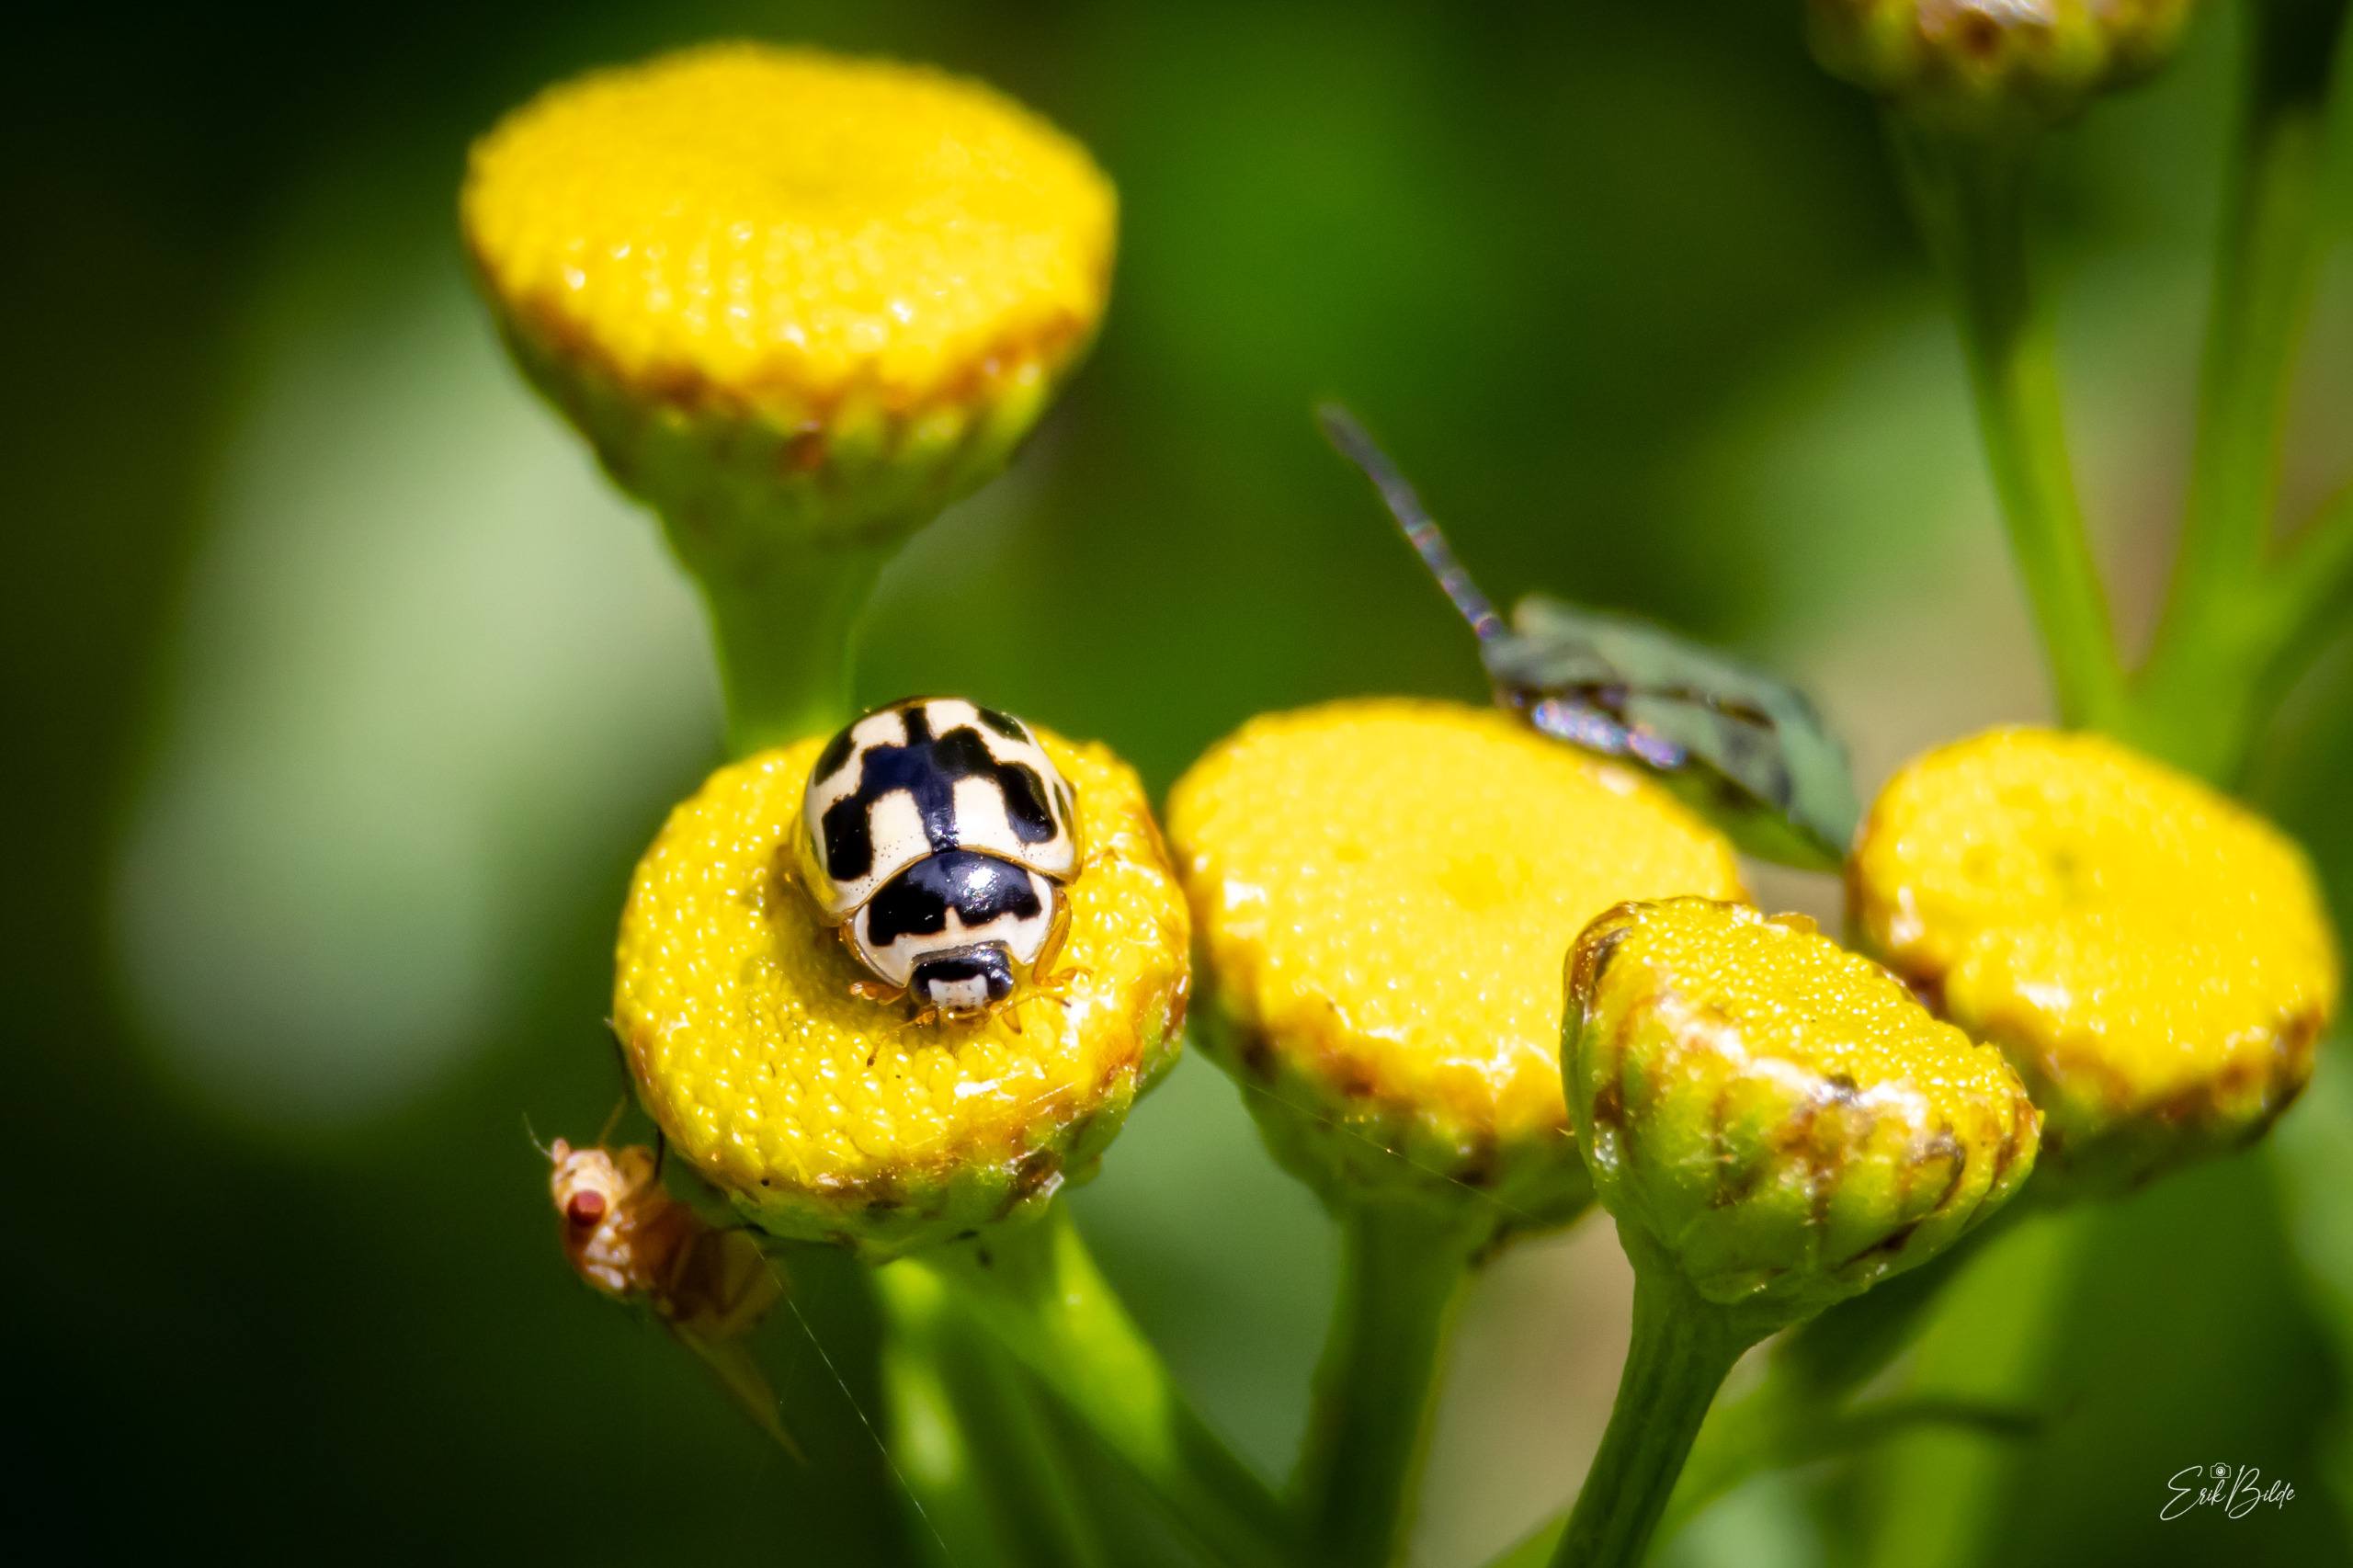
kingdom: Animalia
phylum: Arthropoda
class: Insecta
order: Coleoptera
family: Coccinellidae
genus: Propylaea
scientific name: Propylaea quatuordecimpunctata
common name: Skakbræt
